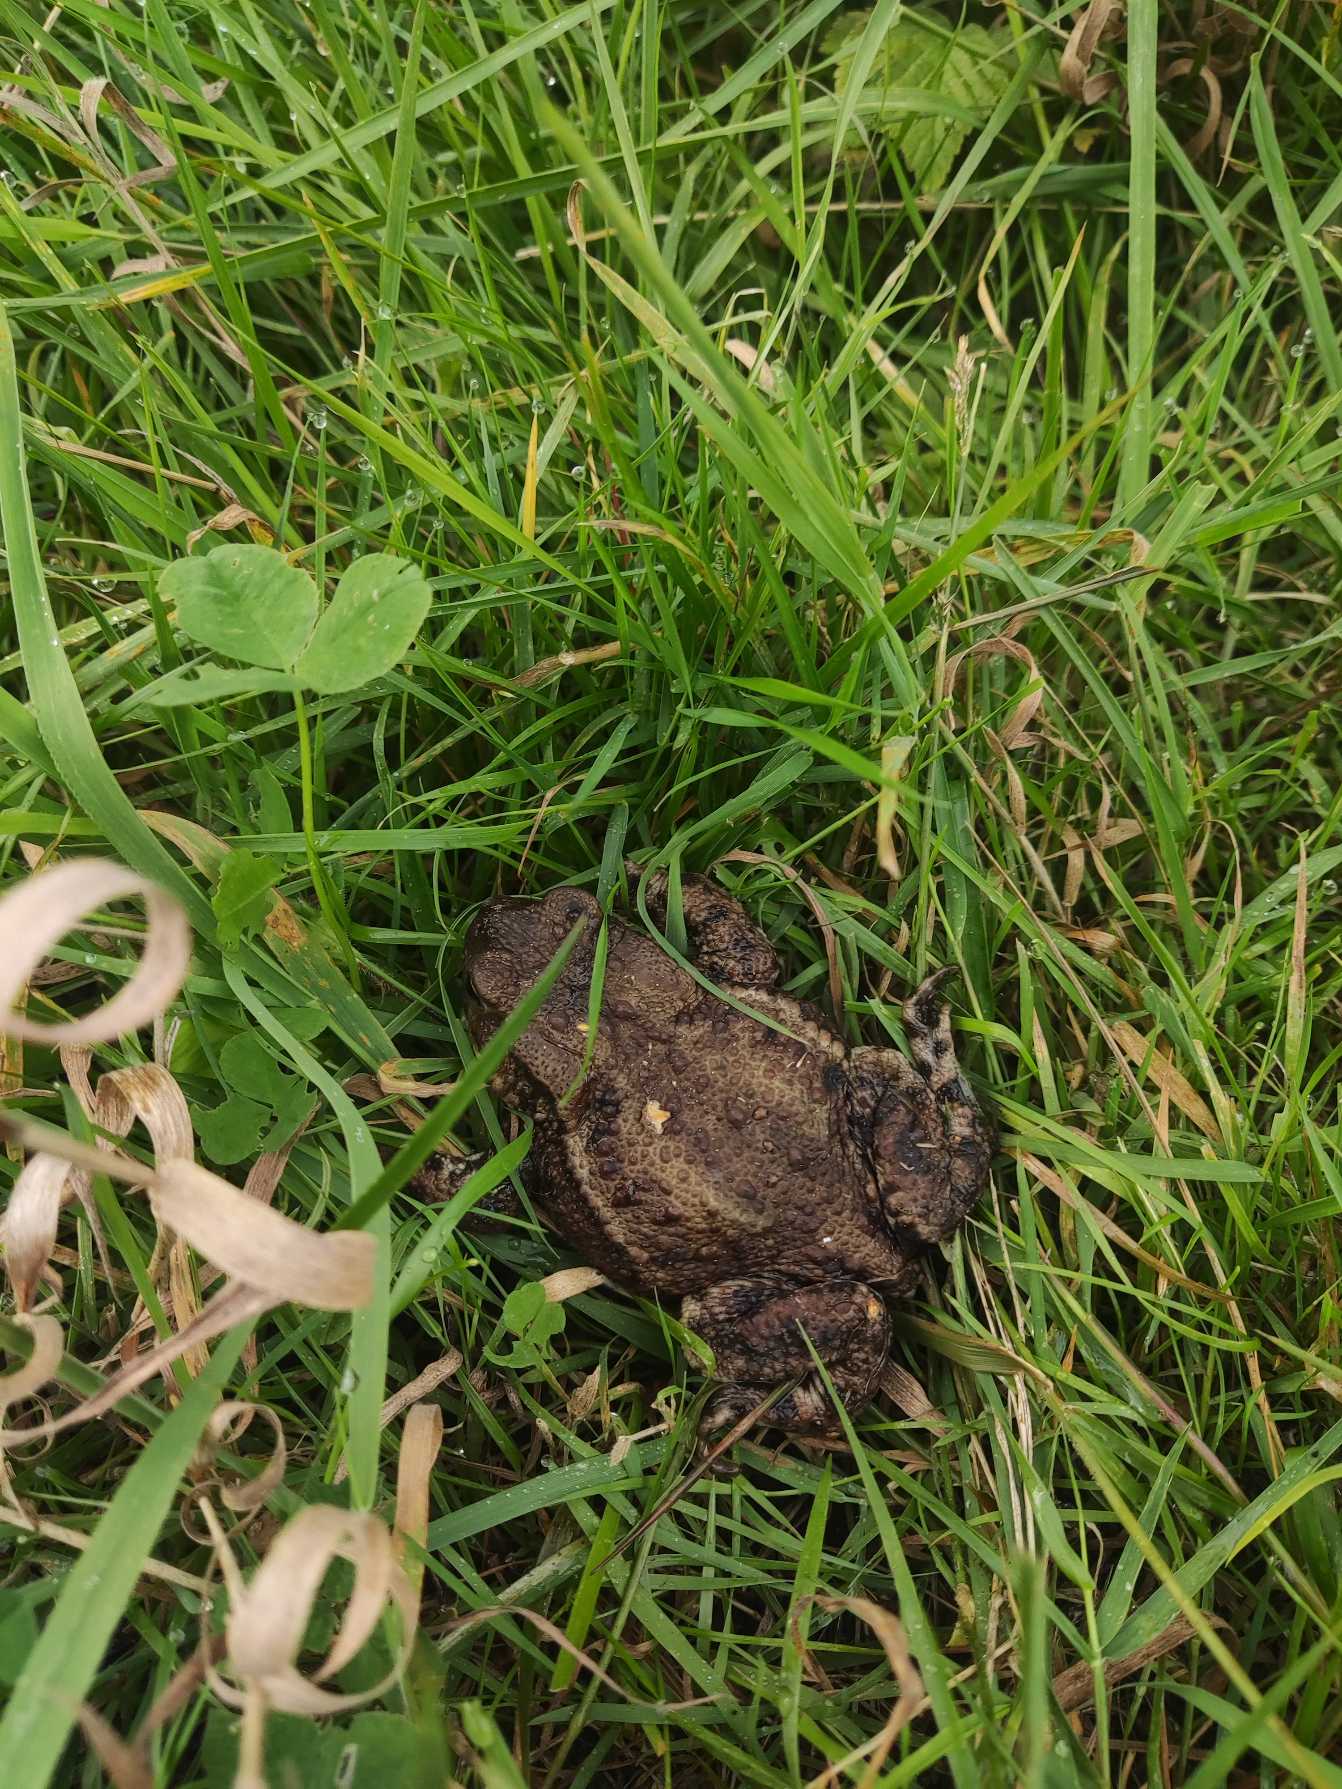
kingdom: Animalia
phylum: Chordata
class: Amphibia
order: Anura
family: Bufonidae
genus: Bufo
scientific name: Bufo bufo
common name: Skrubtudse
